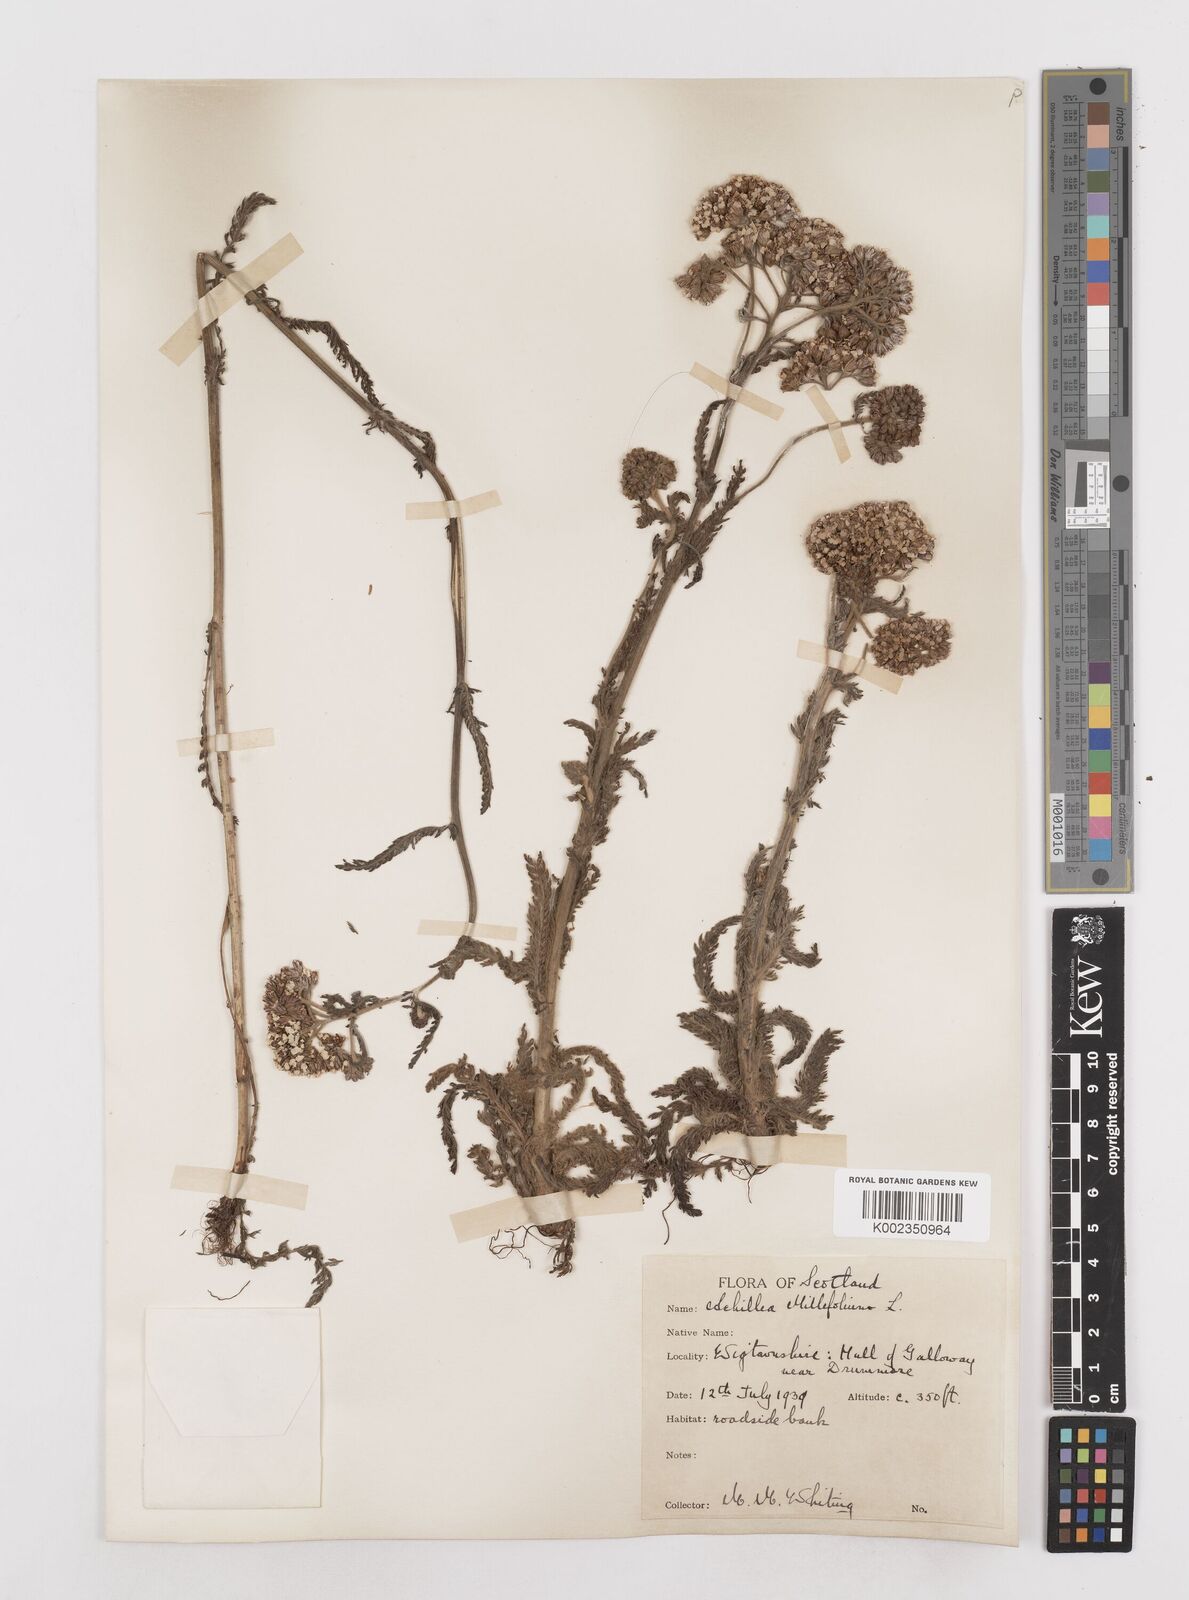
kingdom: Plantae
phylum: Tracheophyta
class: Magnoliopsida
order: Asterales
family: Asteraceae
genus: Achillea
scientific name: Achillea millefolium
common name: Yarrow
